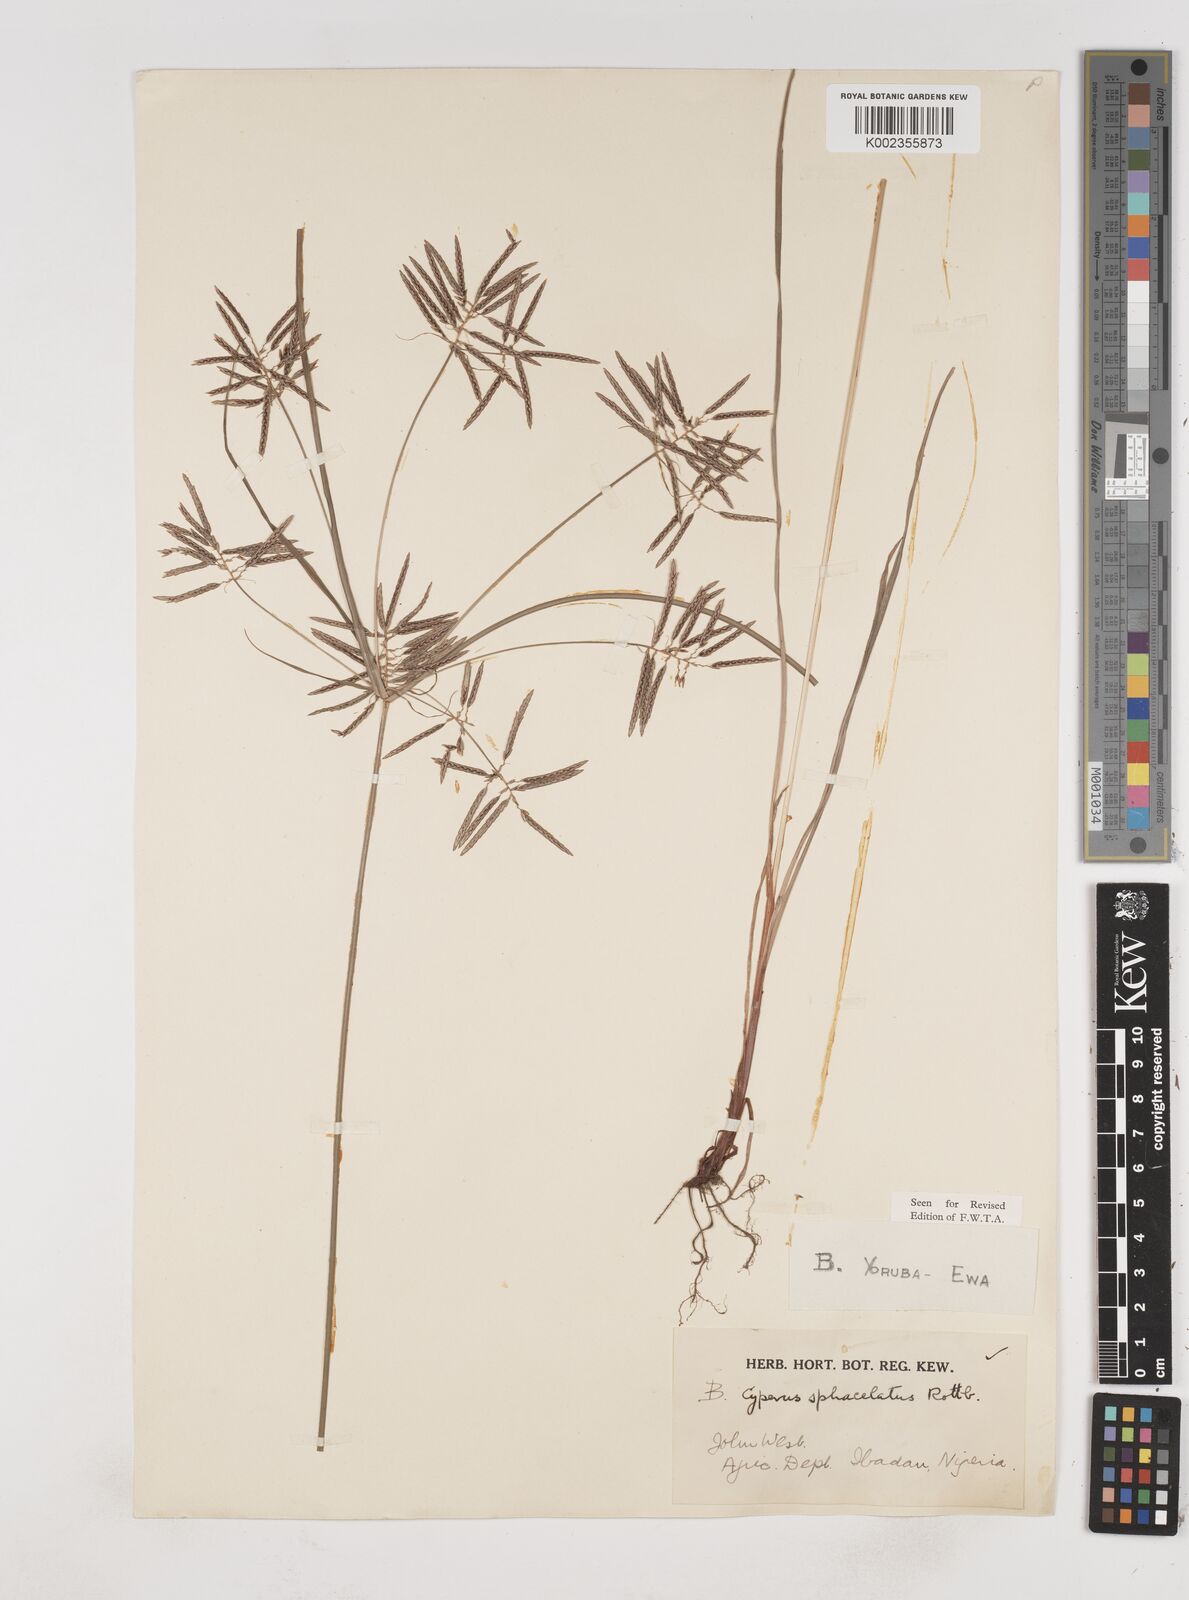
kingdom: Plantae
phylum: Tracheophyta
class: Liliopsida
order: Poales
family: Cyperaceae
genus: Cyperus
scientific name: Cyperus sphacelatus
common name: Roadside flatsedge
